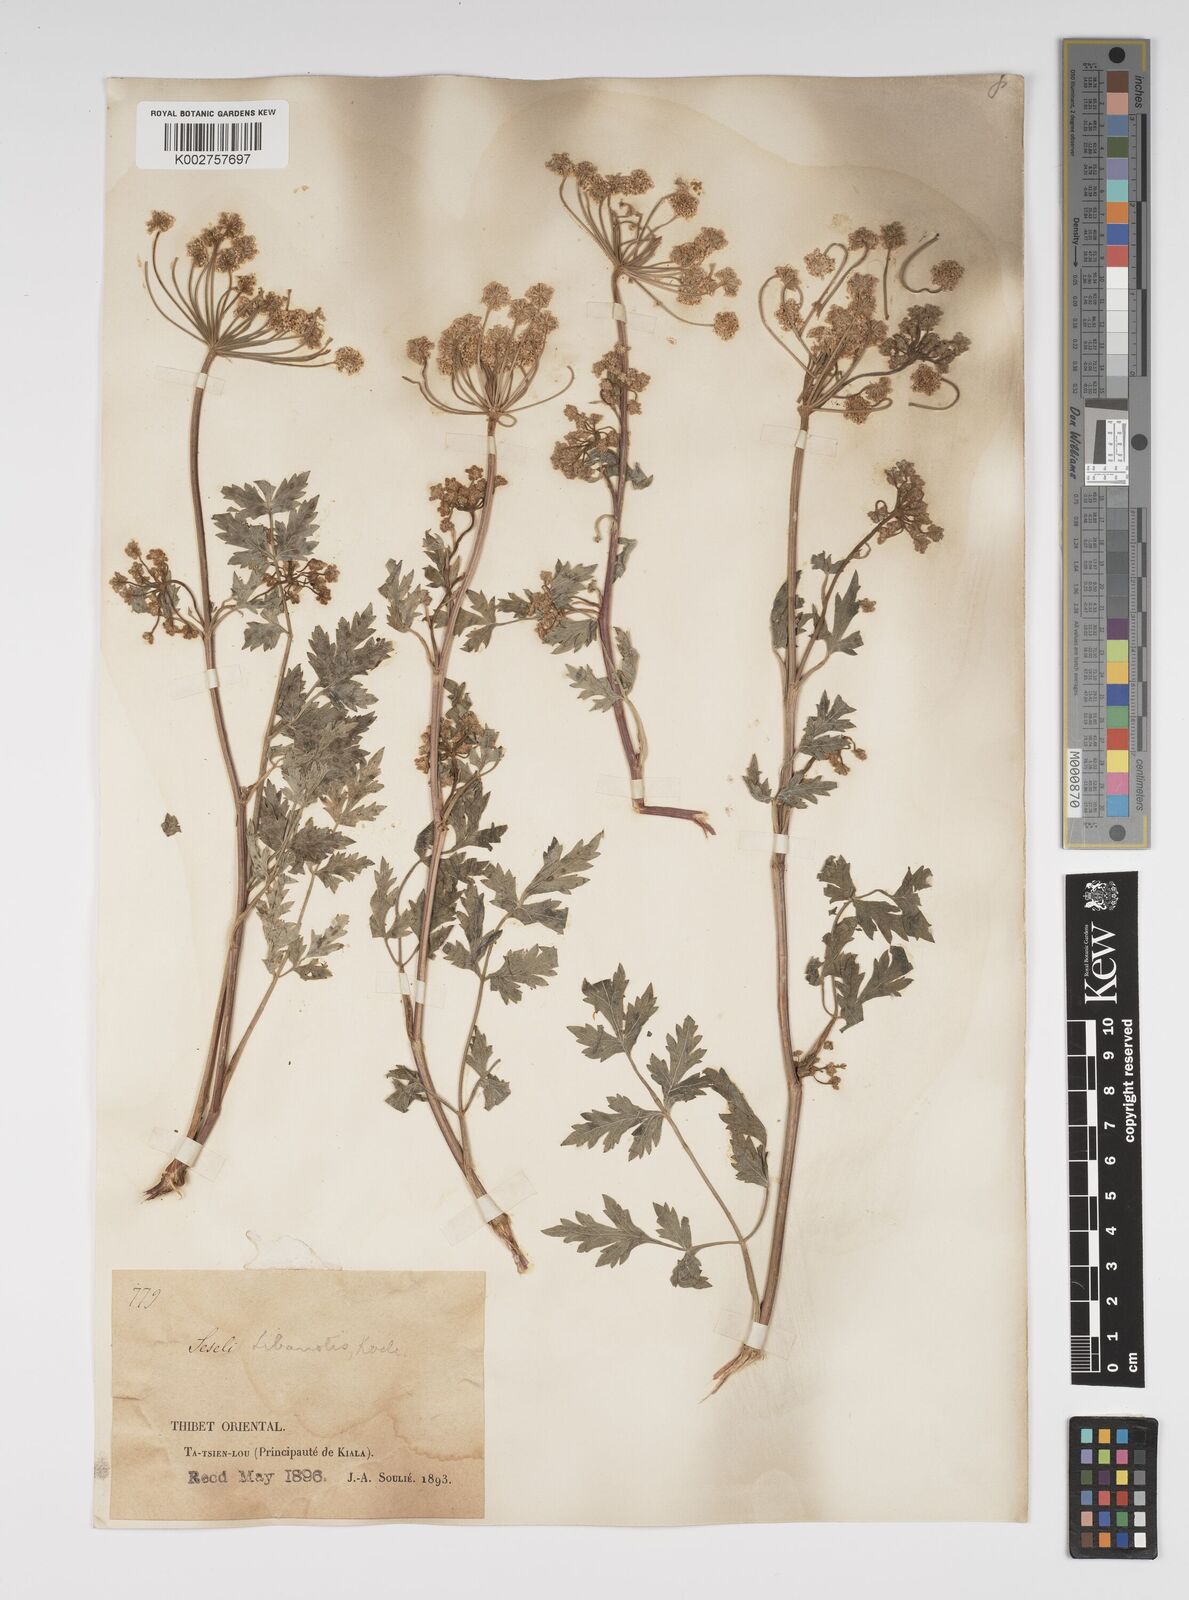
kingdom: Plantae
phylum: Tracheophyta
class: Magnoliopsida
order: Apiales
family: Apiaceae
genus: Seseli
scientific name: Seseli libanotis
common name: Mooncarrot
